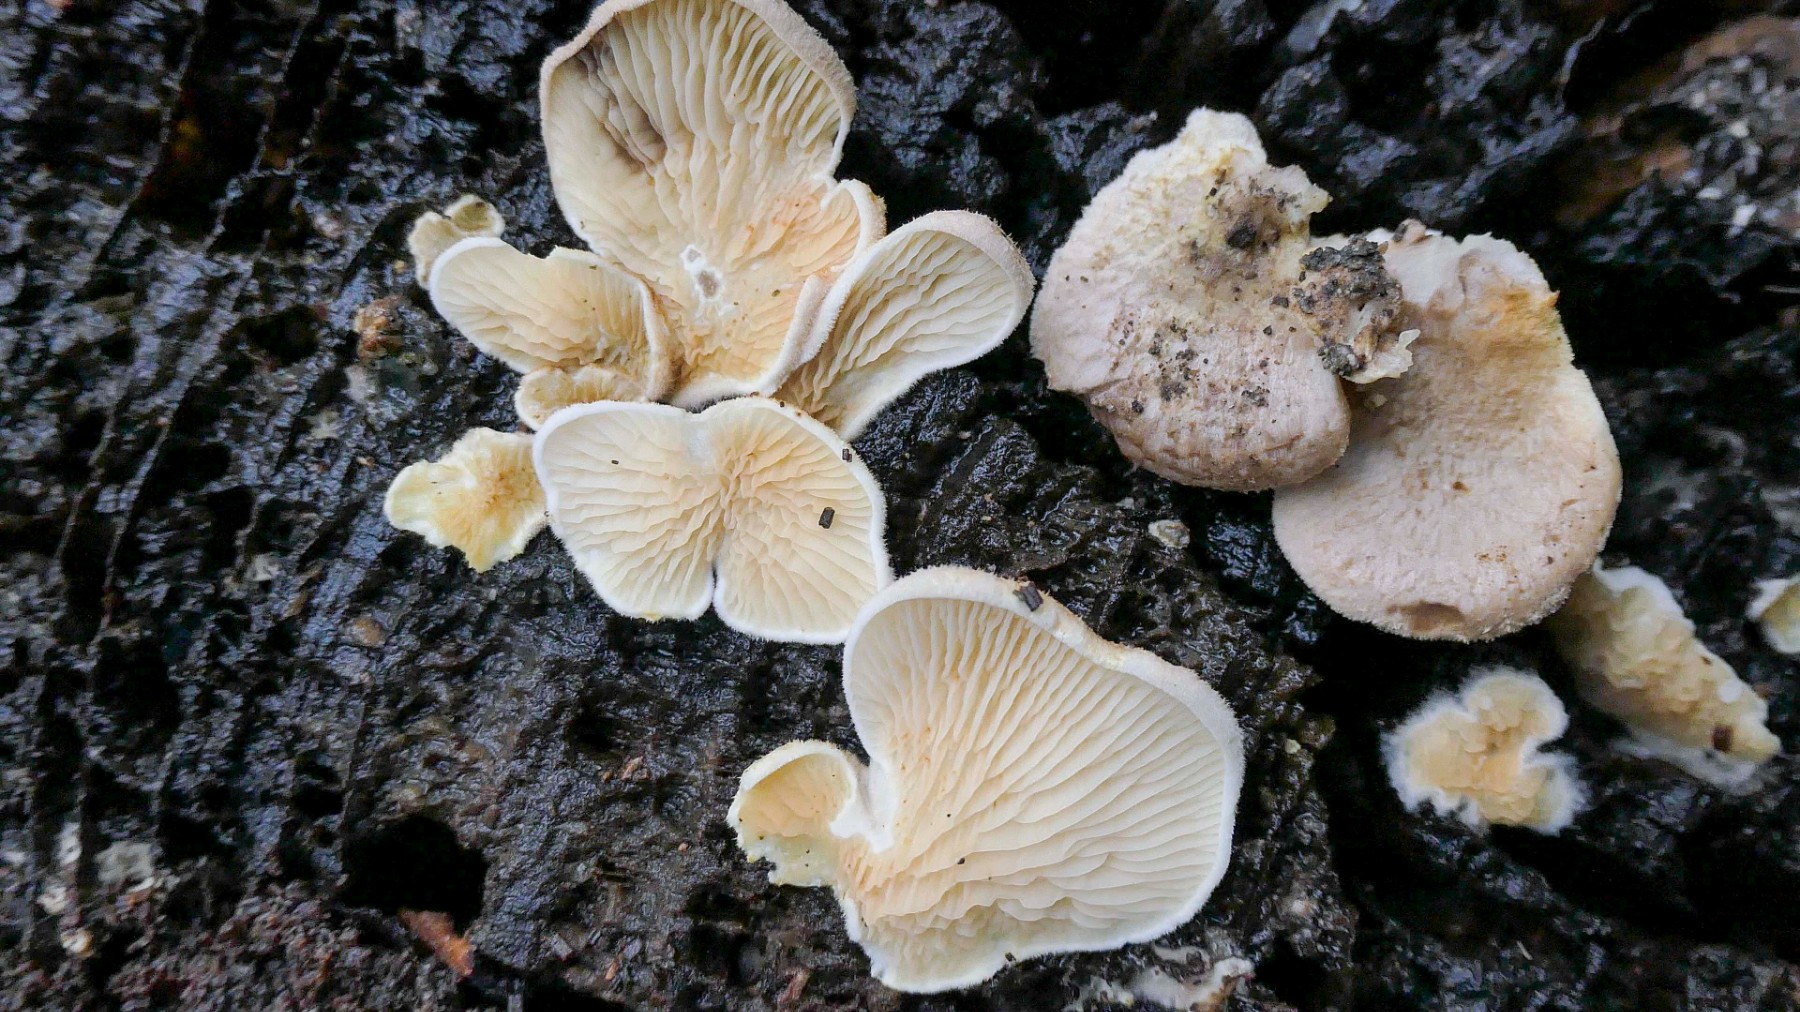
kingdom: Fungi
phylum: Basidiomycota
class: Agaricomycetes
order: Boletales
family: Tapinellaceae
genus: Tapinella
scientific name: Tapinella panuoides
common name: tømmer-viftesvamp
